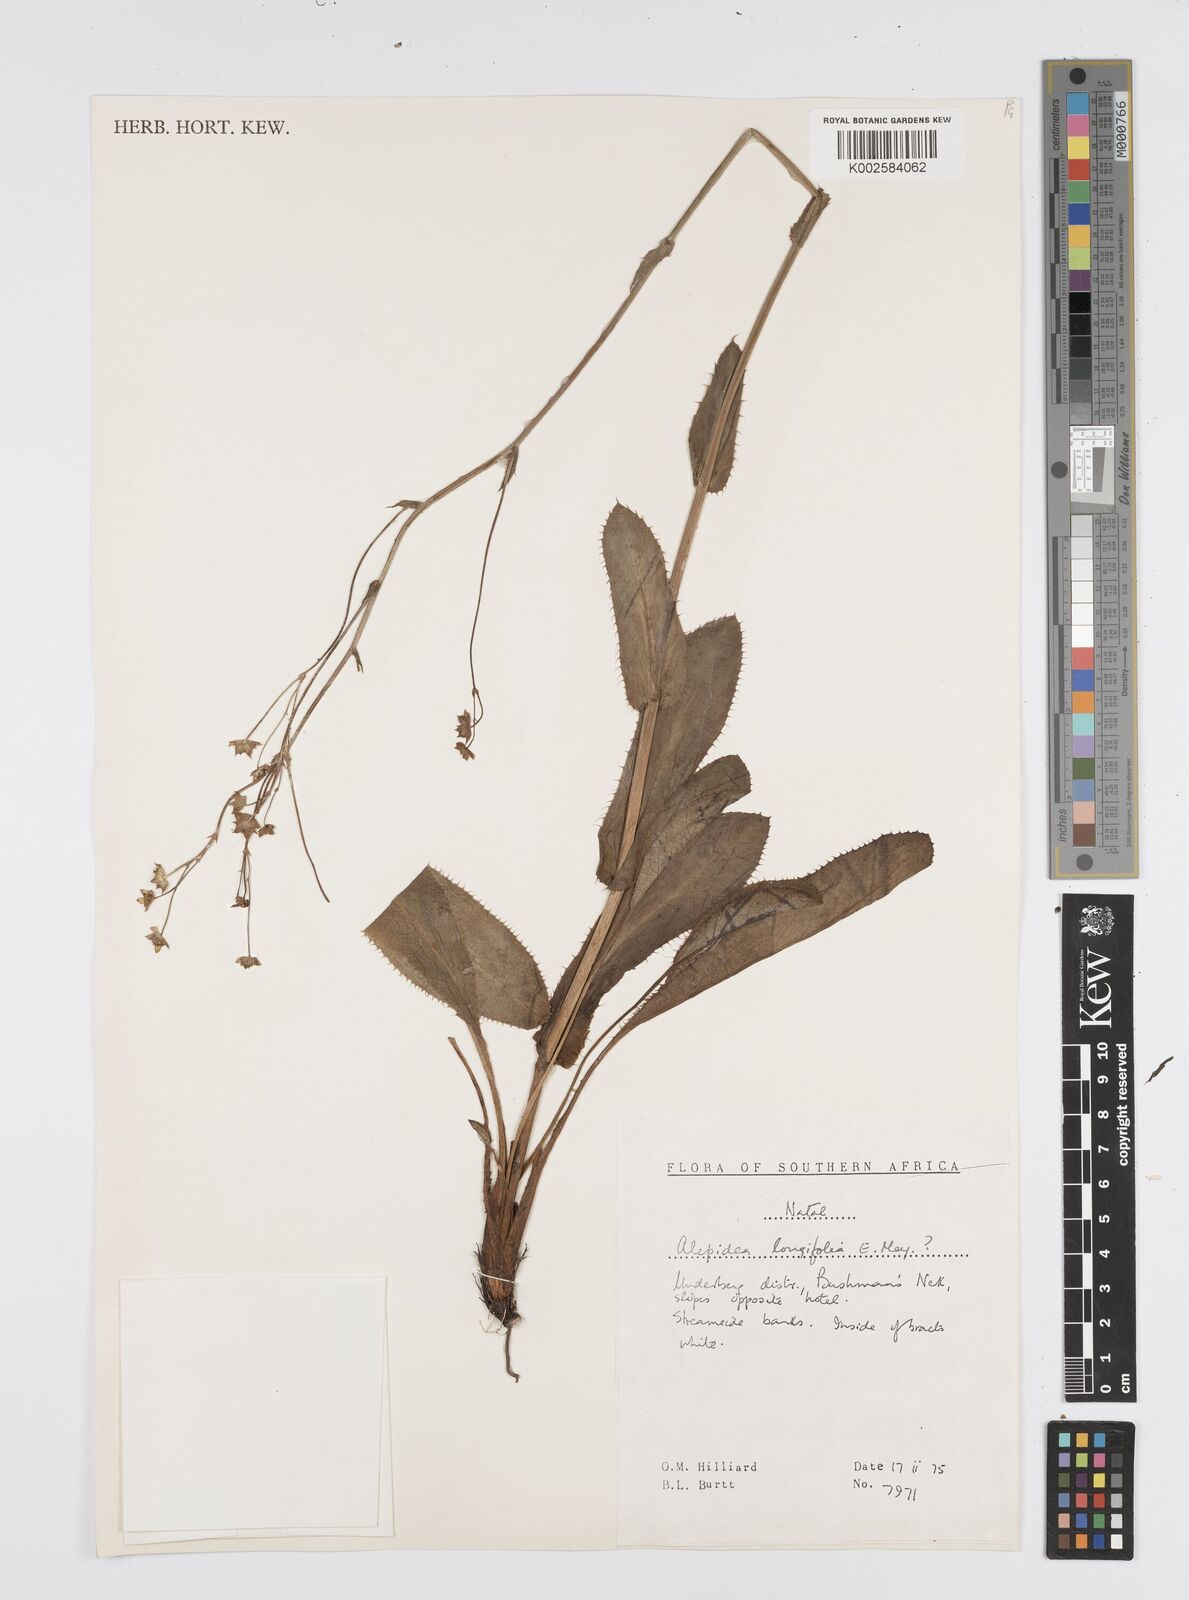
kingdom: Plantae
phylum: Tracheophyta
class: Magnoliopsida
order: Apiales
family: Apiaceae
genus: Alepidea
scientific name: Alepidea woodii
